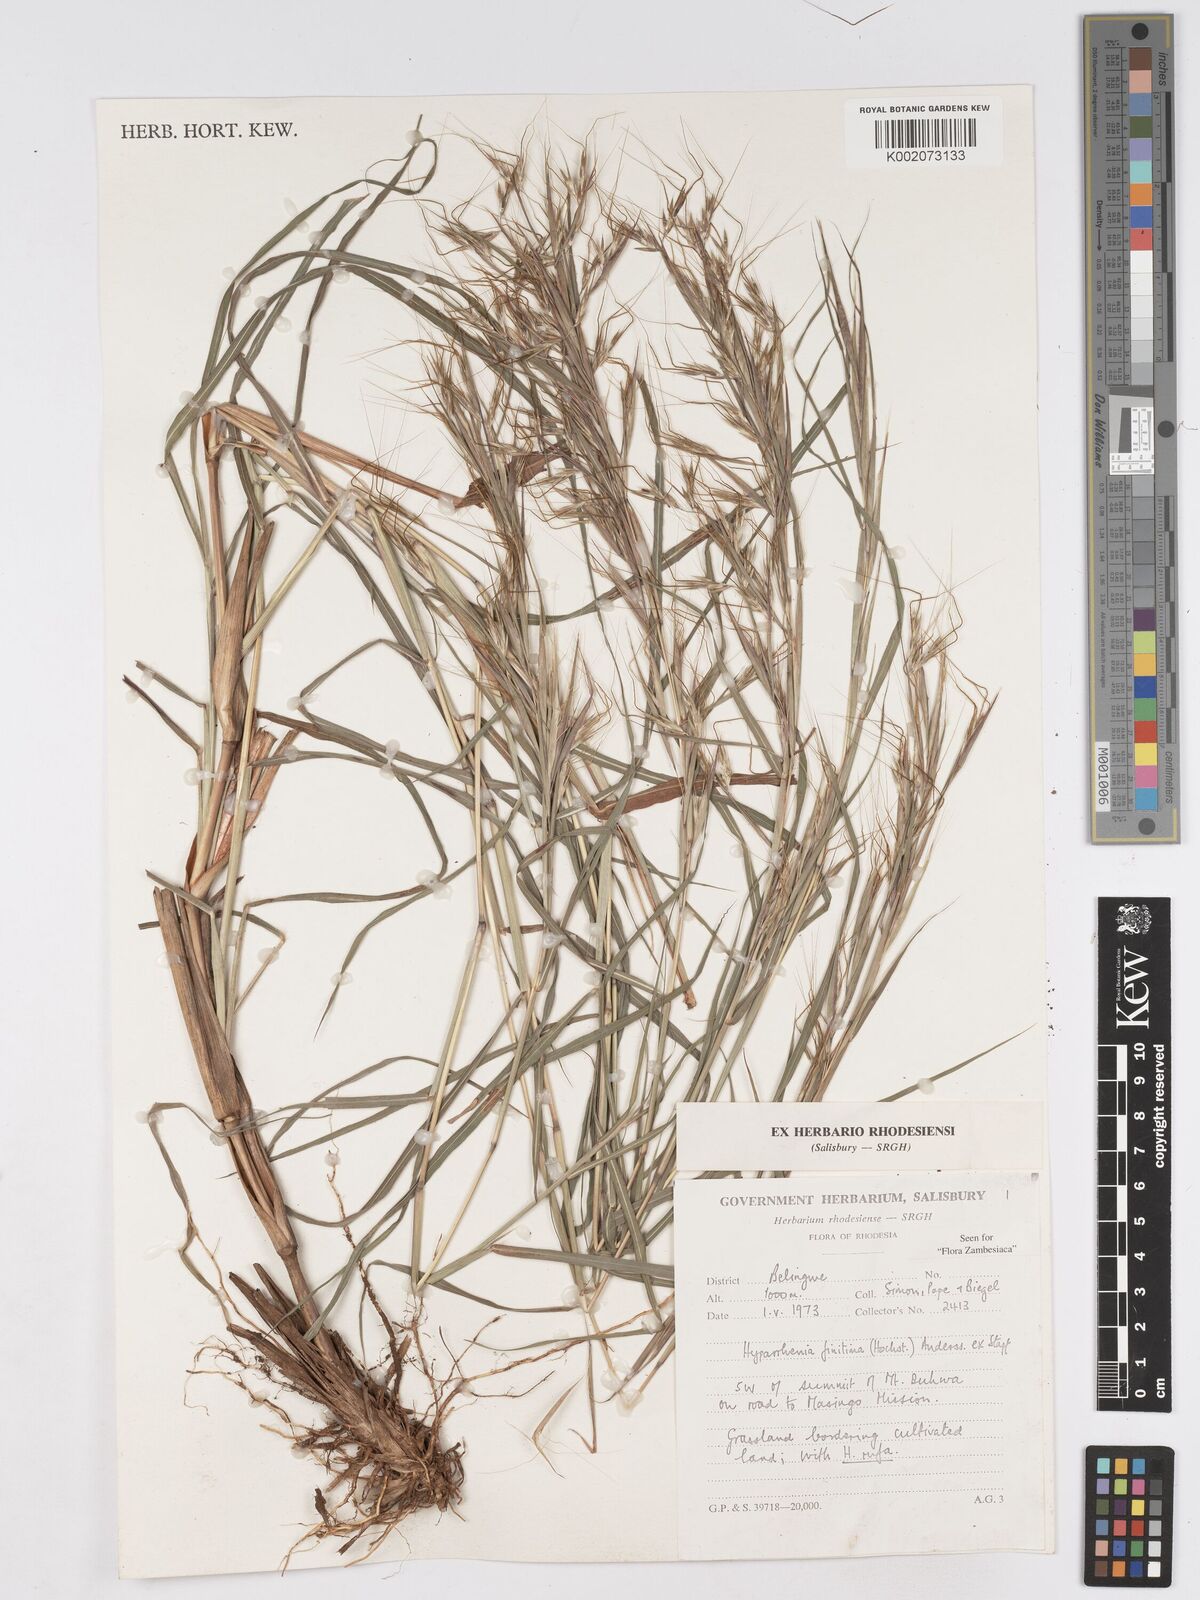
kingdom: Plantae
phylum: Tracheophyta
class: Liliopsida
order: Poales
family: Poaceae
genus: Hyparrhenia
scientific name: Hyparrhenia finitima
